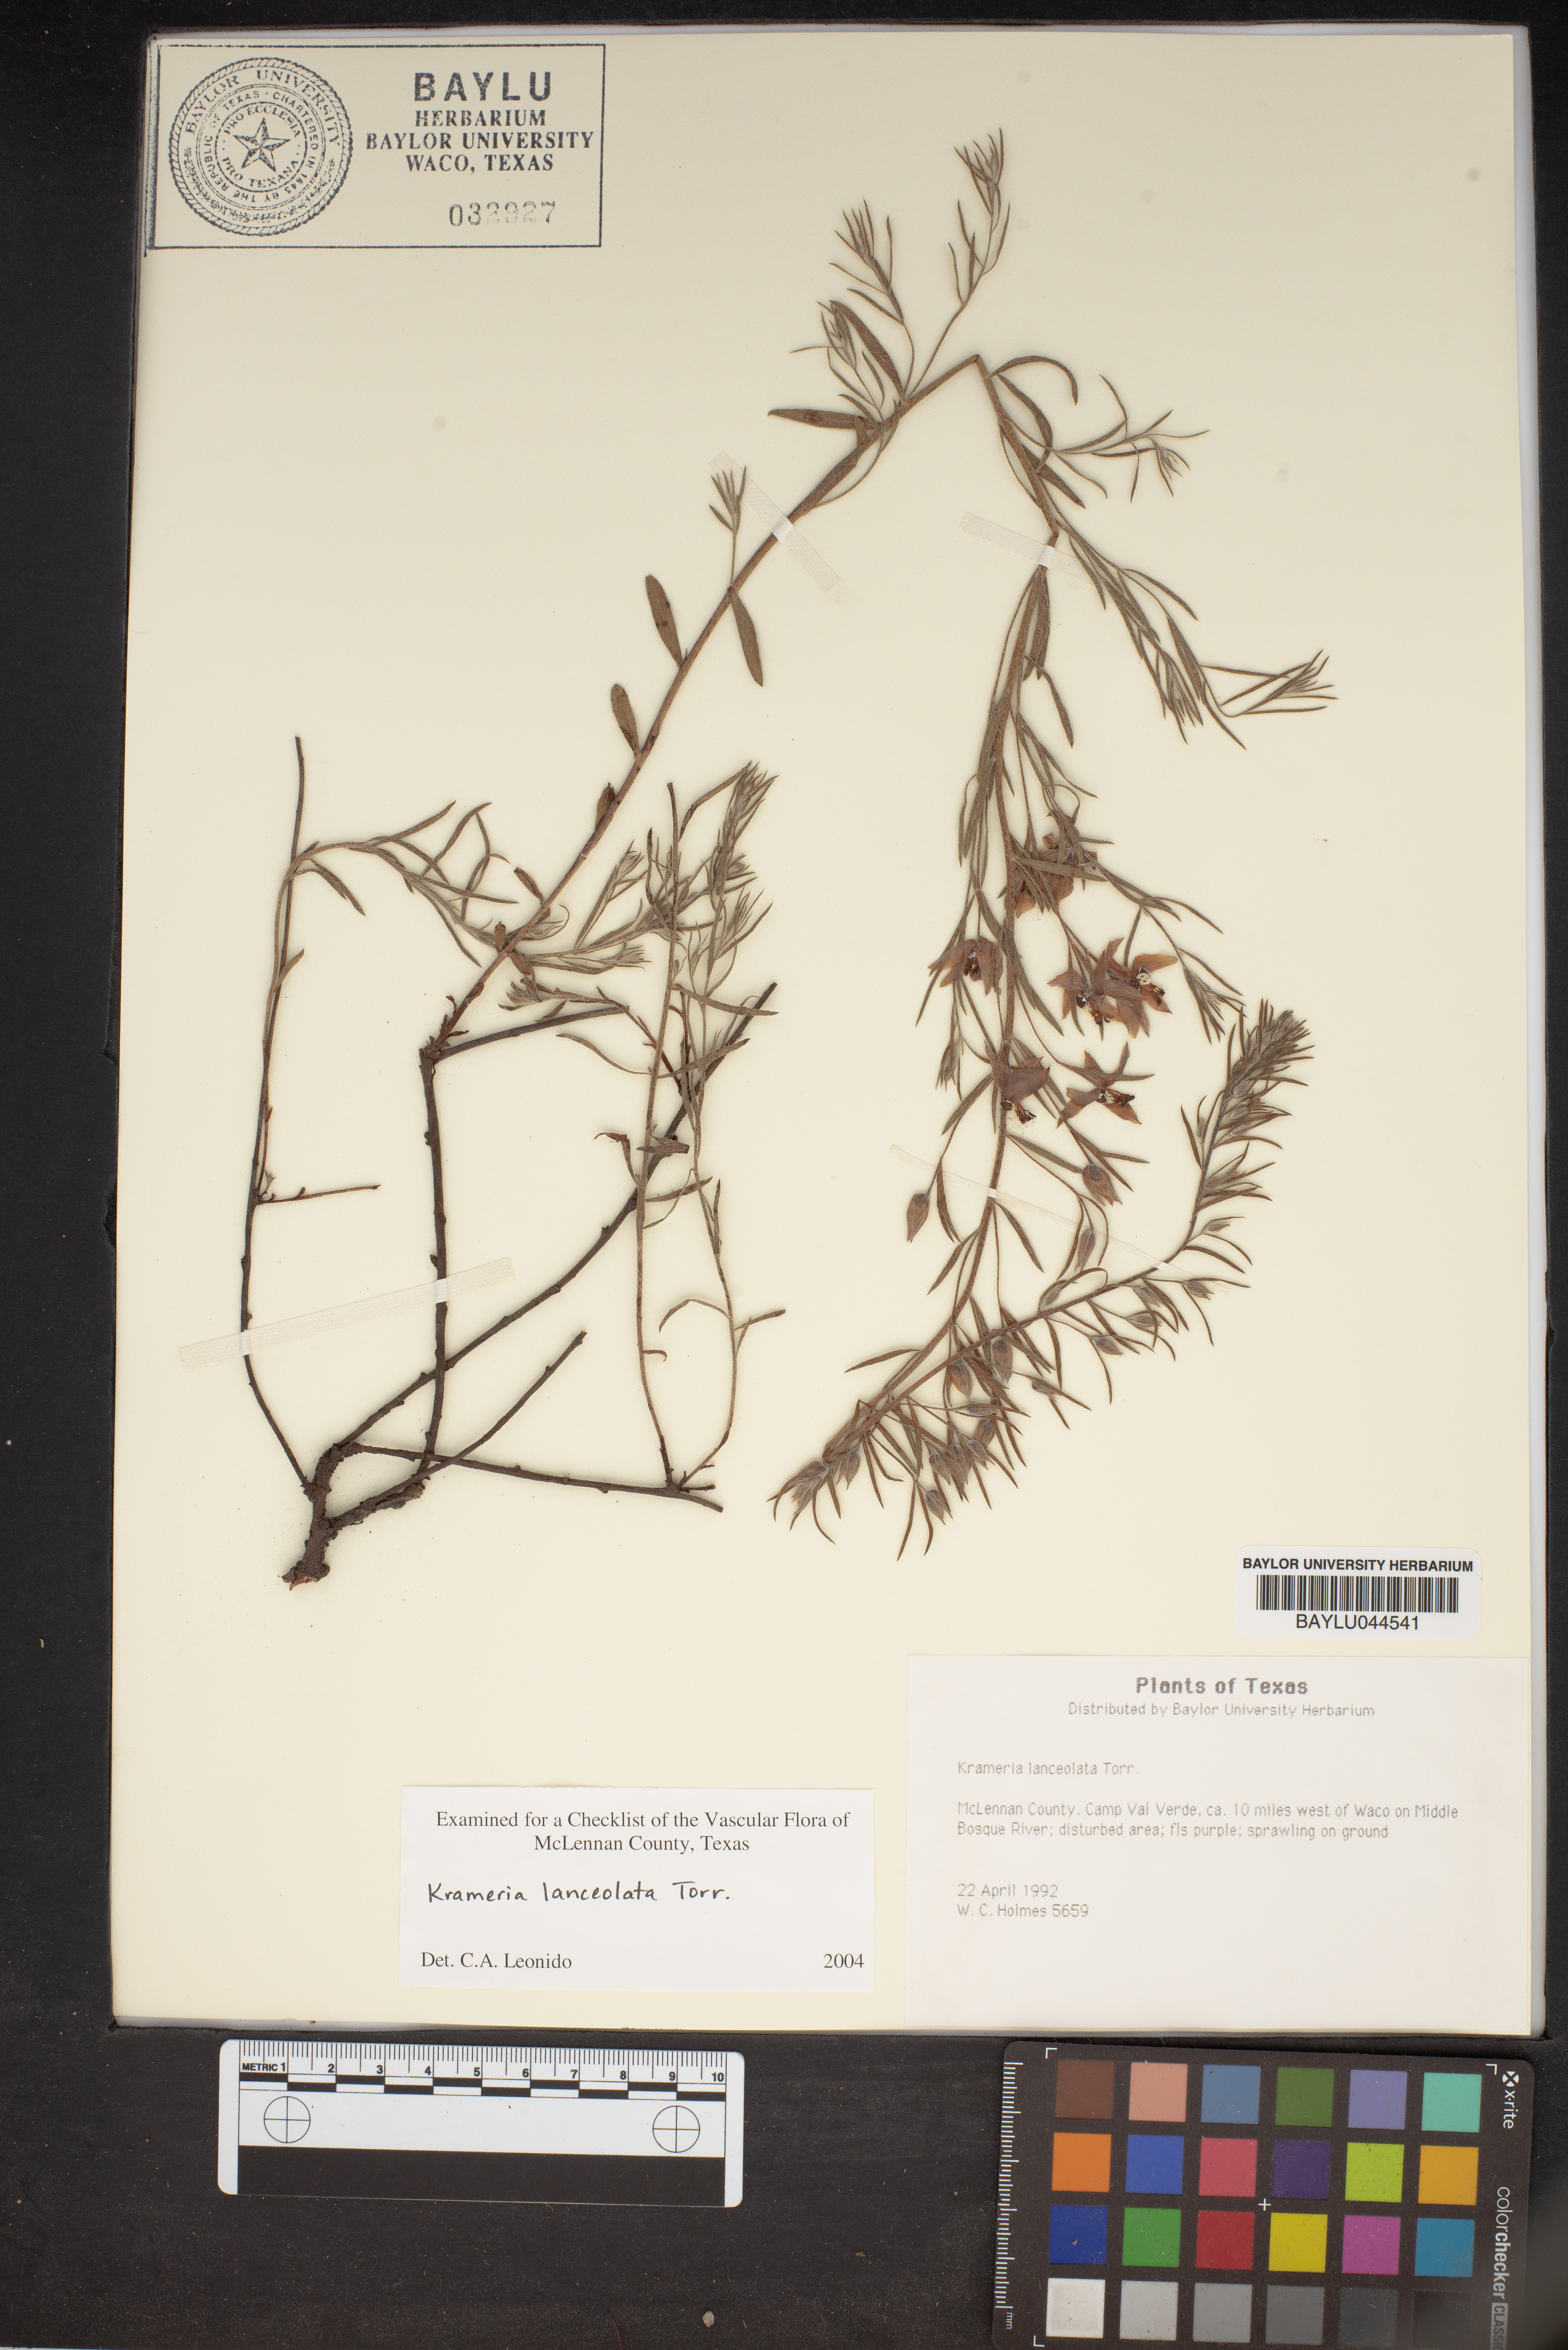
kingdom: Plantae
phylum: Tracheophyta
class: Magnoliopsida
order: Zygophyllales
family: Krameriaceae
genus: Krameria
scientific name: Krameria lanceolata
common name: Ratany
